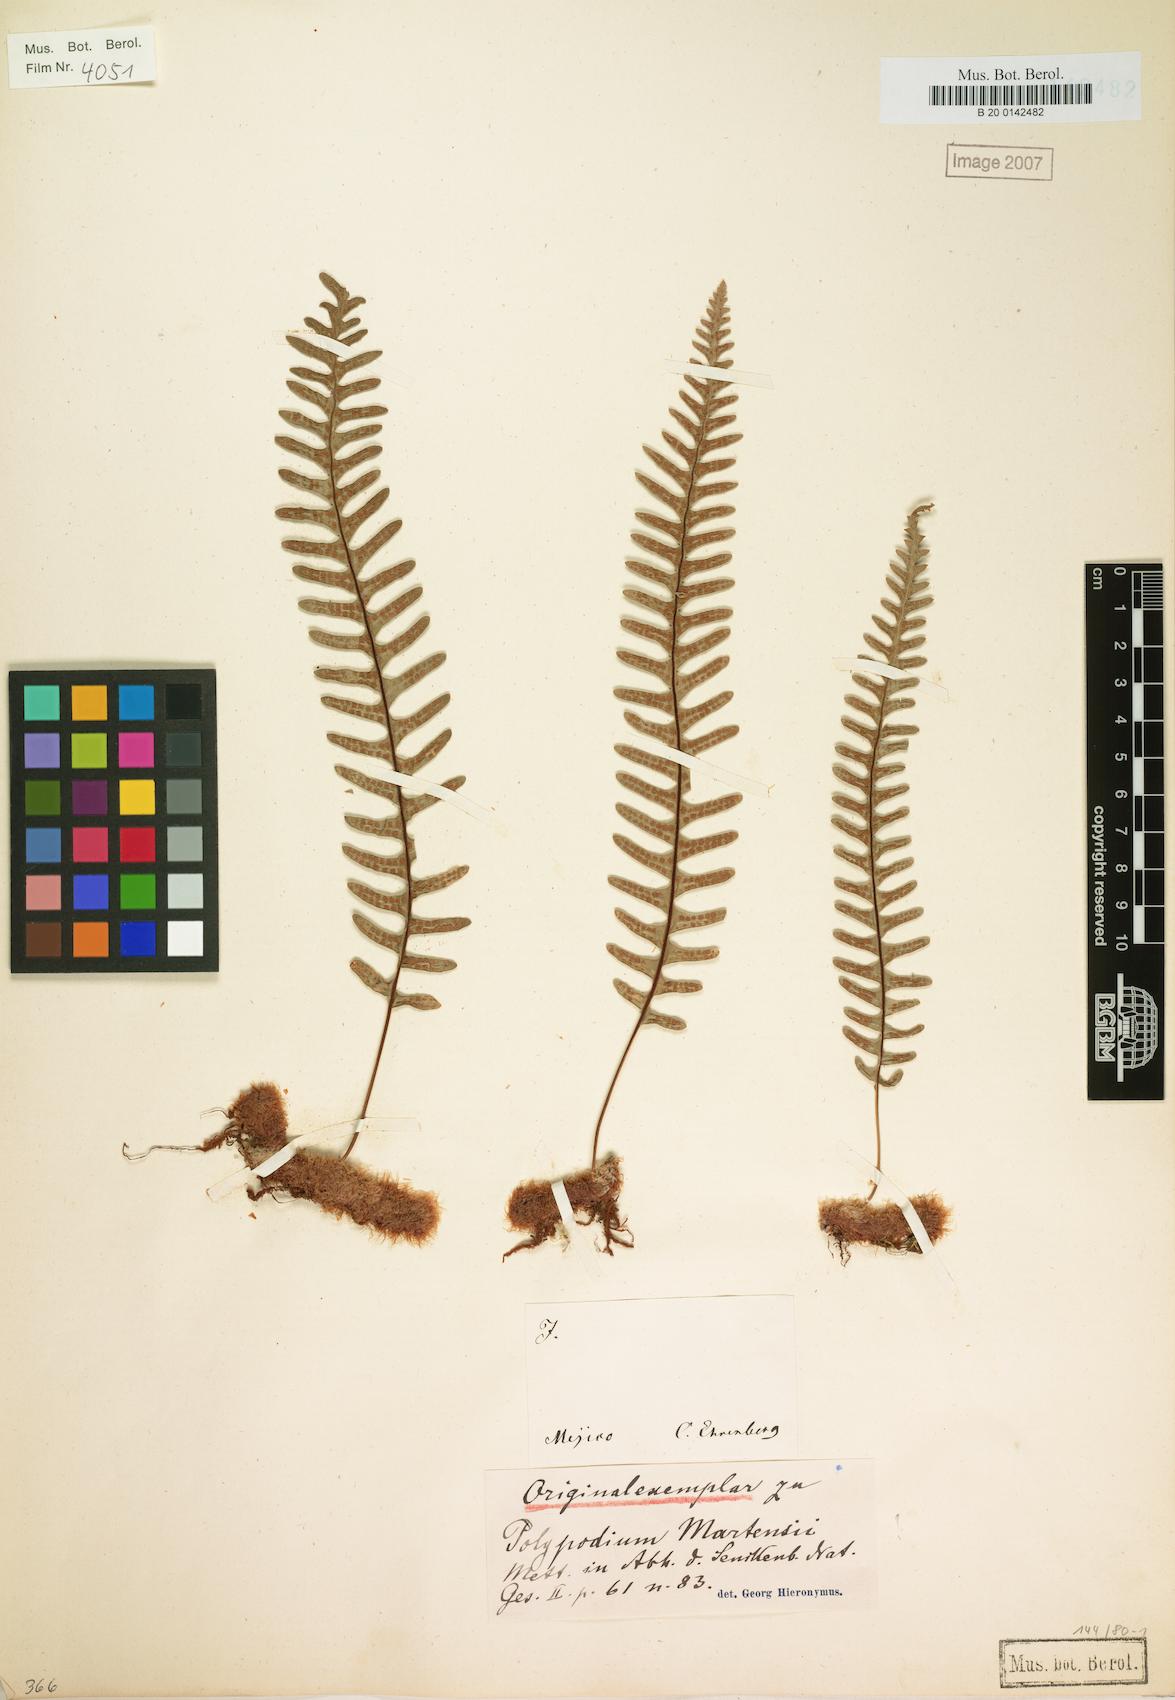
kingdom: Plantae
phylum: Tracheophyta
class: Polypodiopsida
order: Polypodiales
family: Polypodiaceae
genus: Polypodium
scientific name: Polypodium martensii
